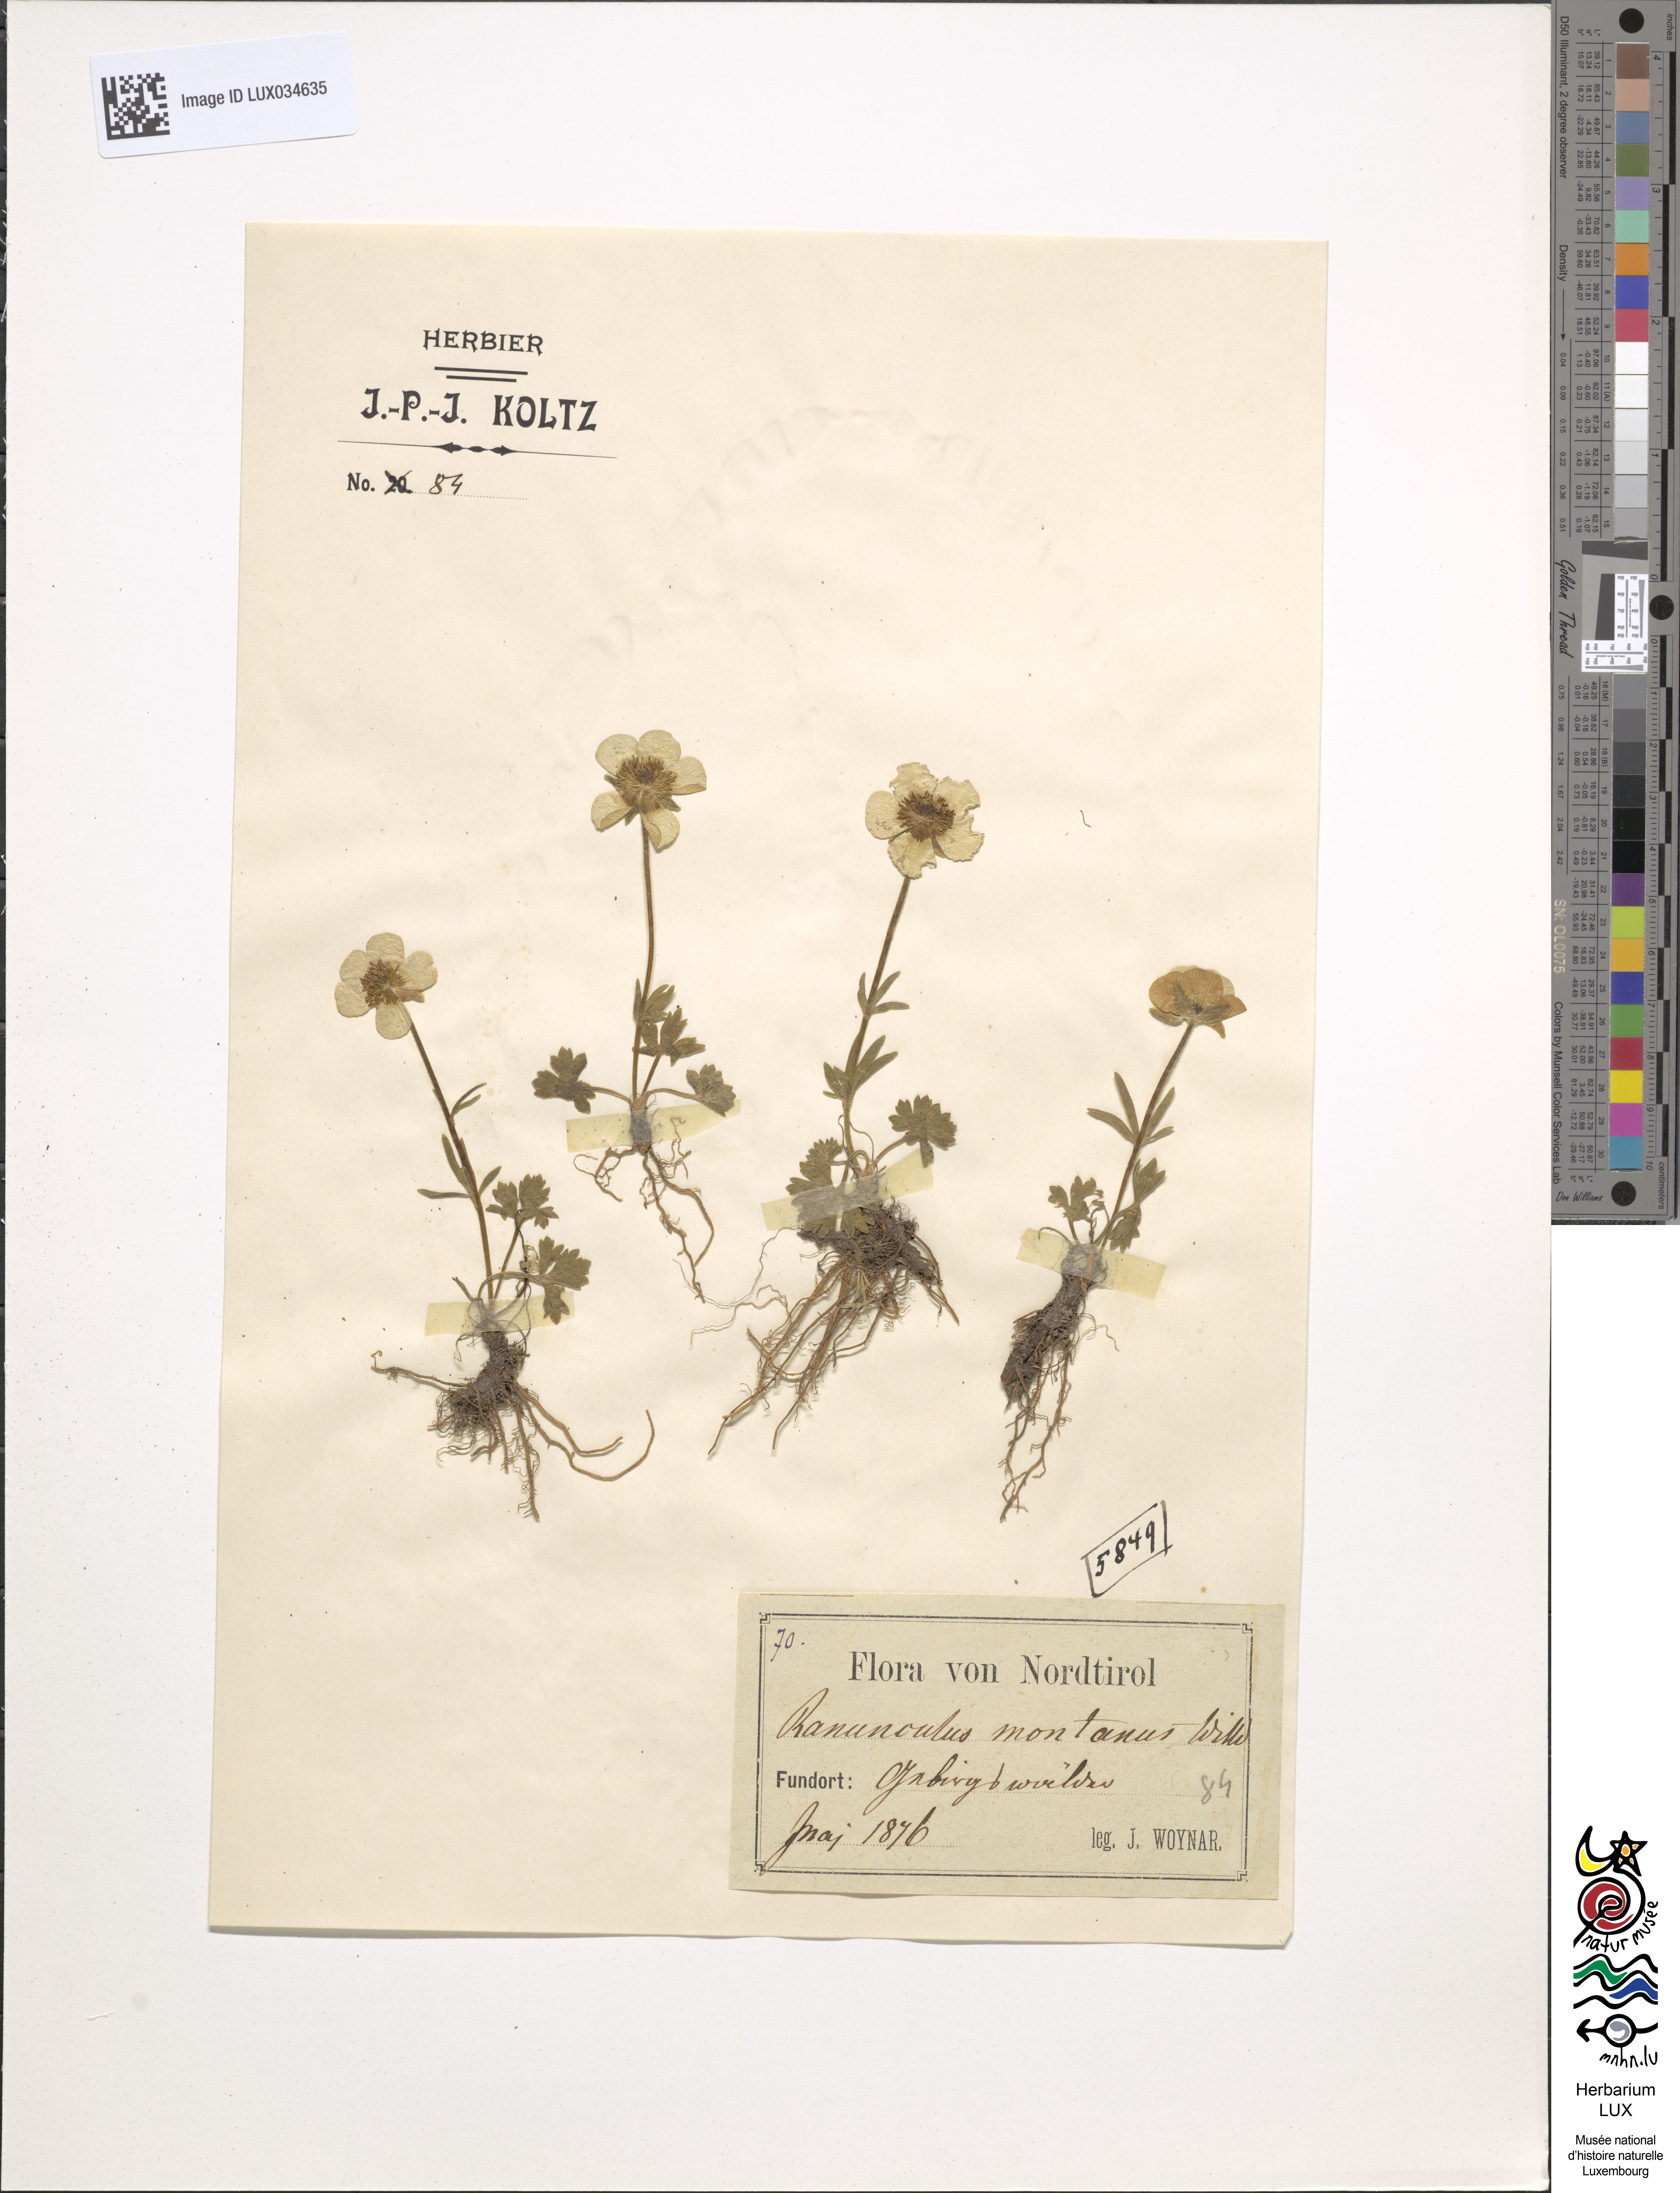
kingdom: Plantae
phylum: Tracheophyta
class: Magnoliopsida
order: Ranunculales
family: Ranunculaceae
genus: Ranunculus
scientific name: Ranunculus montanus
